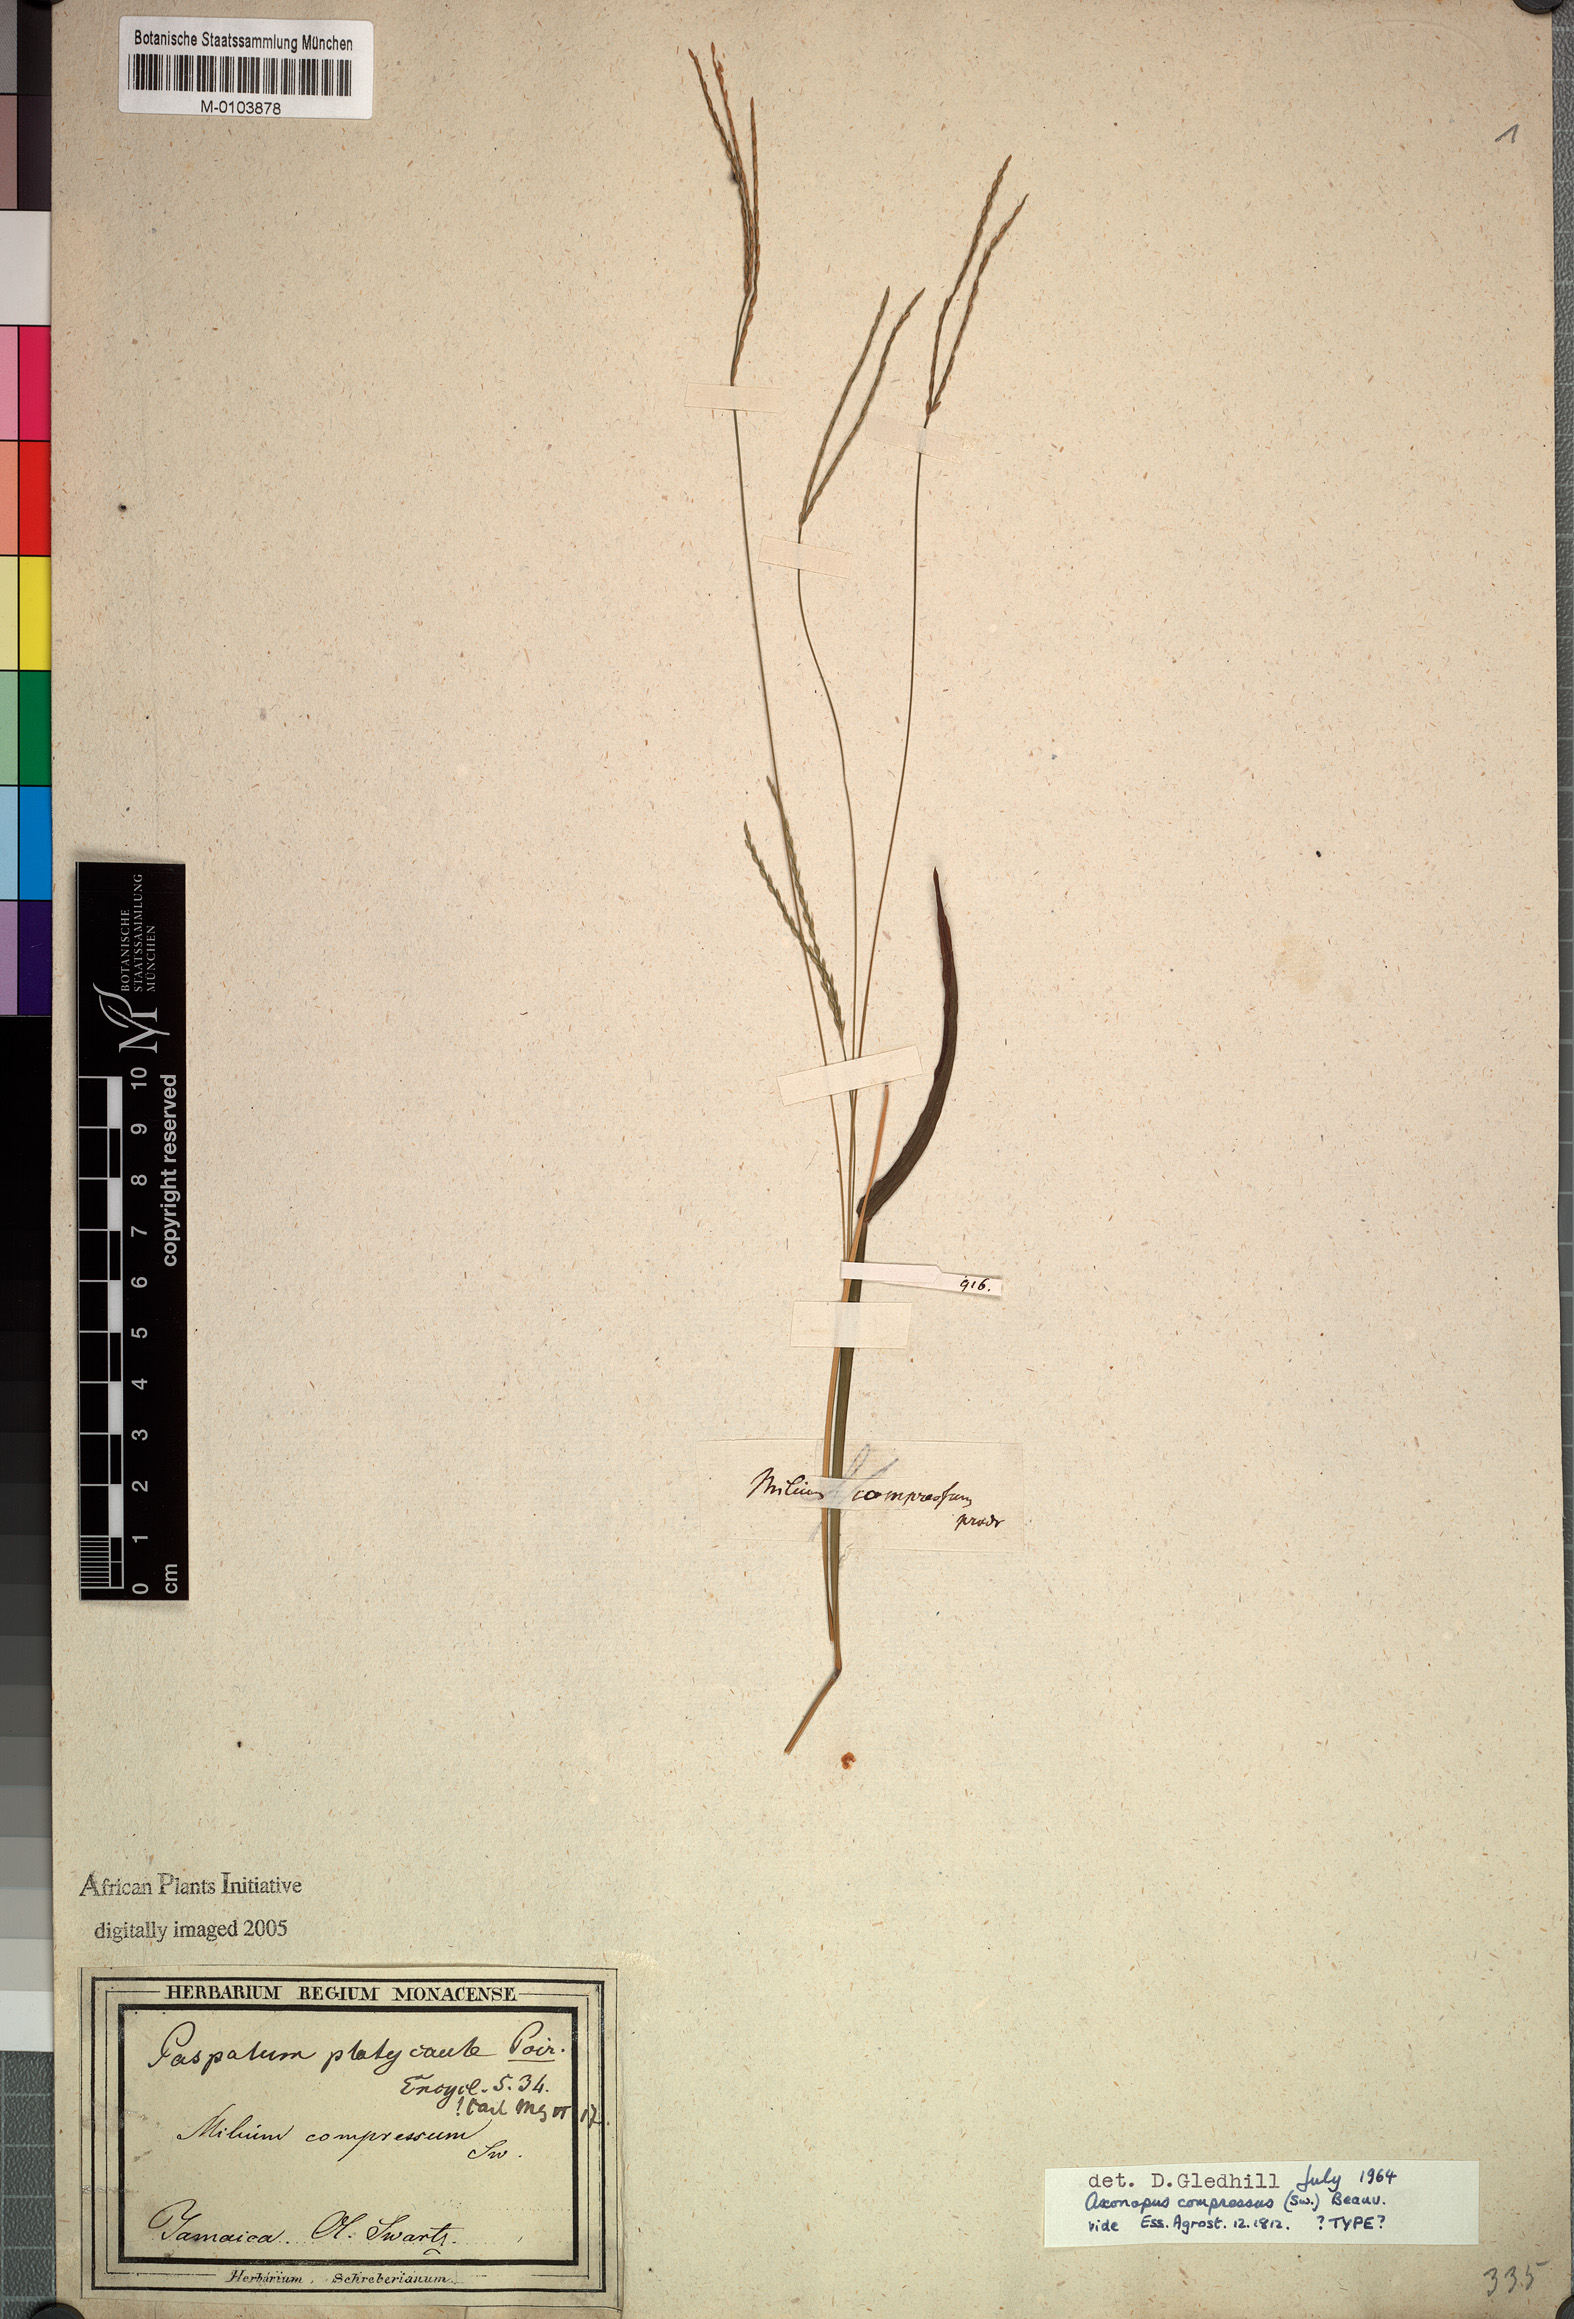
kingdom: Plantae
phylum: Tracheophyta
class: Liliopsida
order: Poales
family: Poaceae
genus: Axonopus
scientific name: Axonopus compressus
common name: American carpet grass
